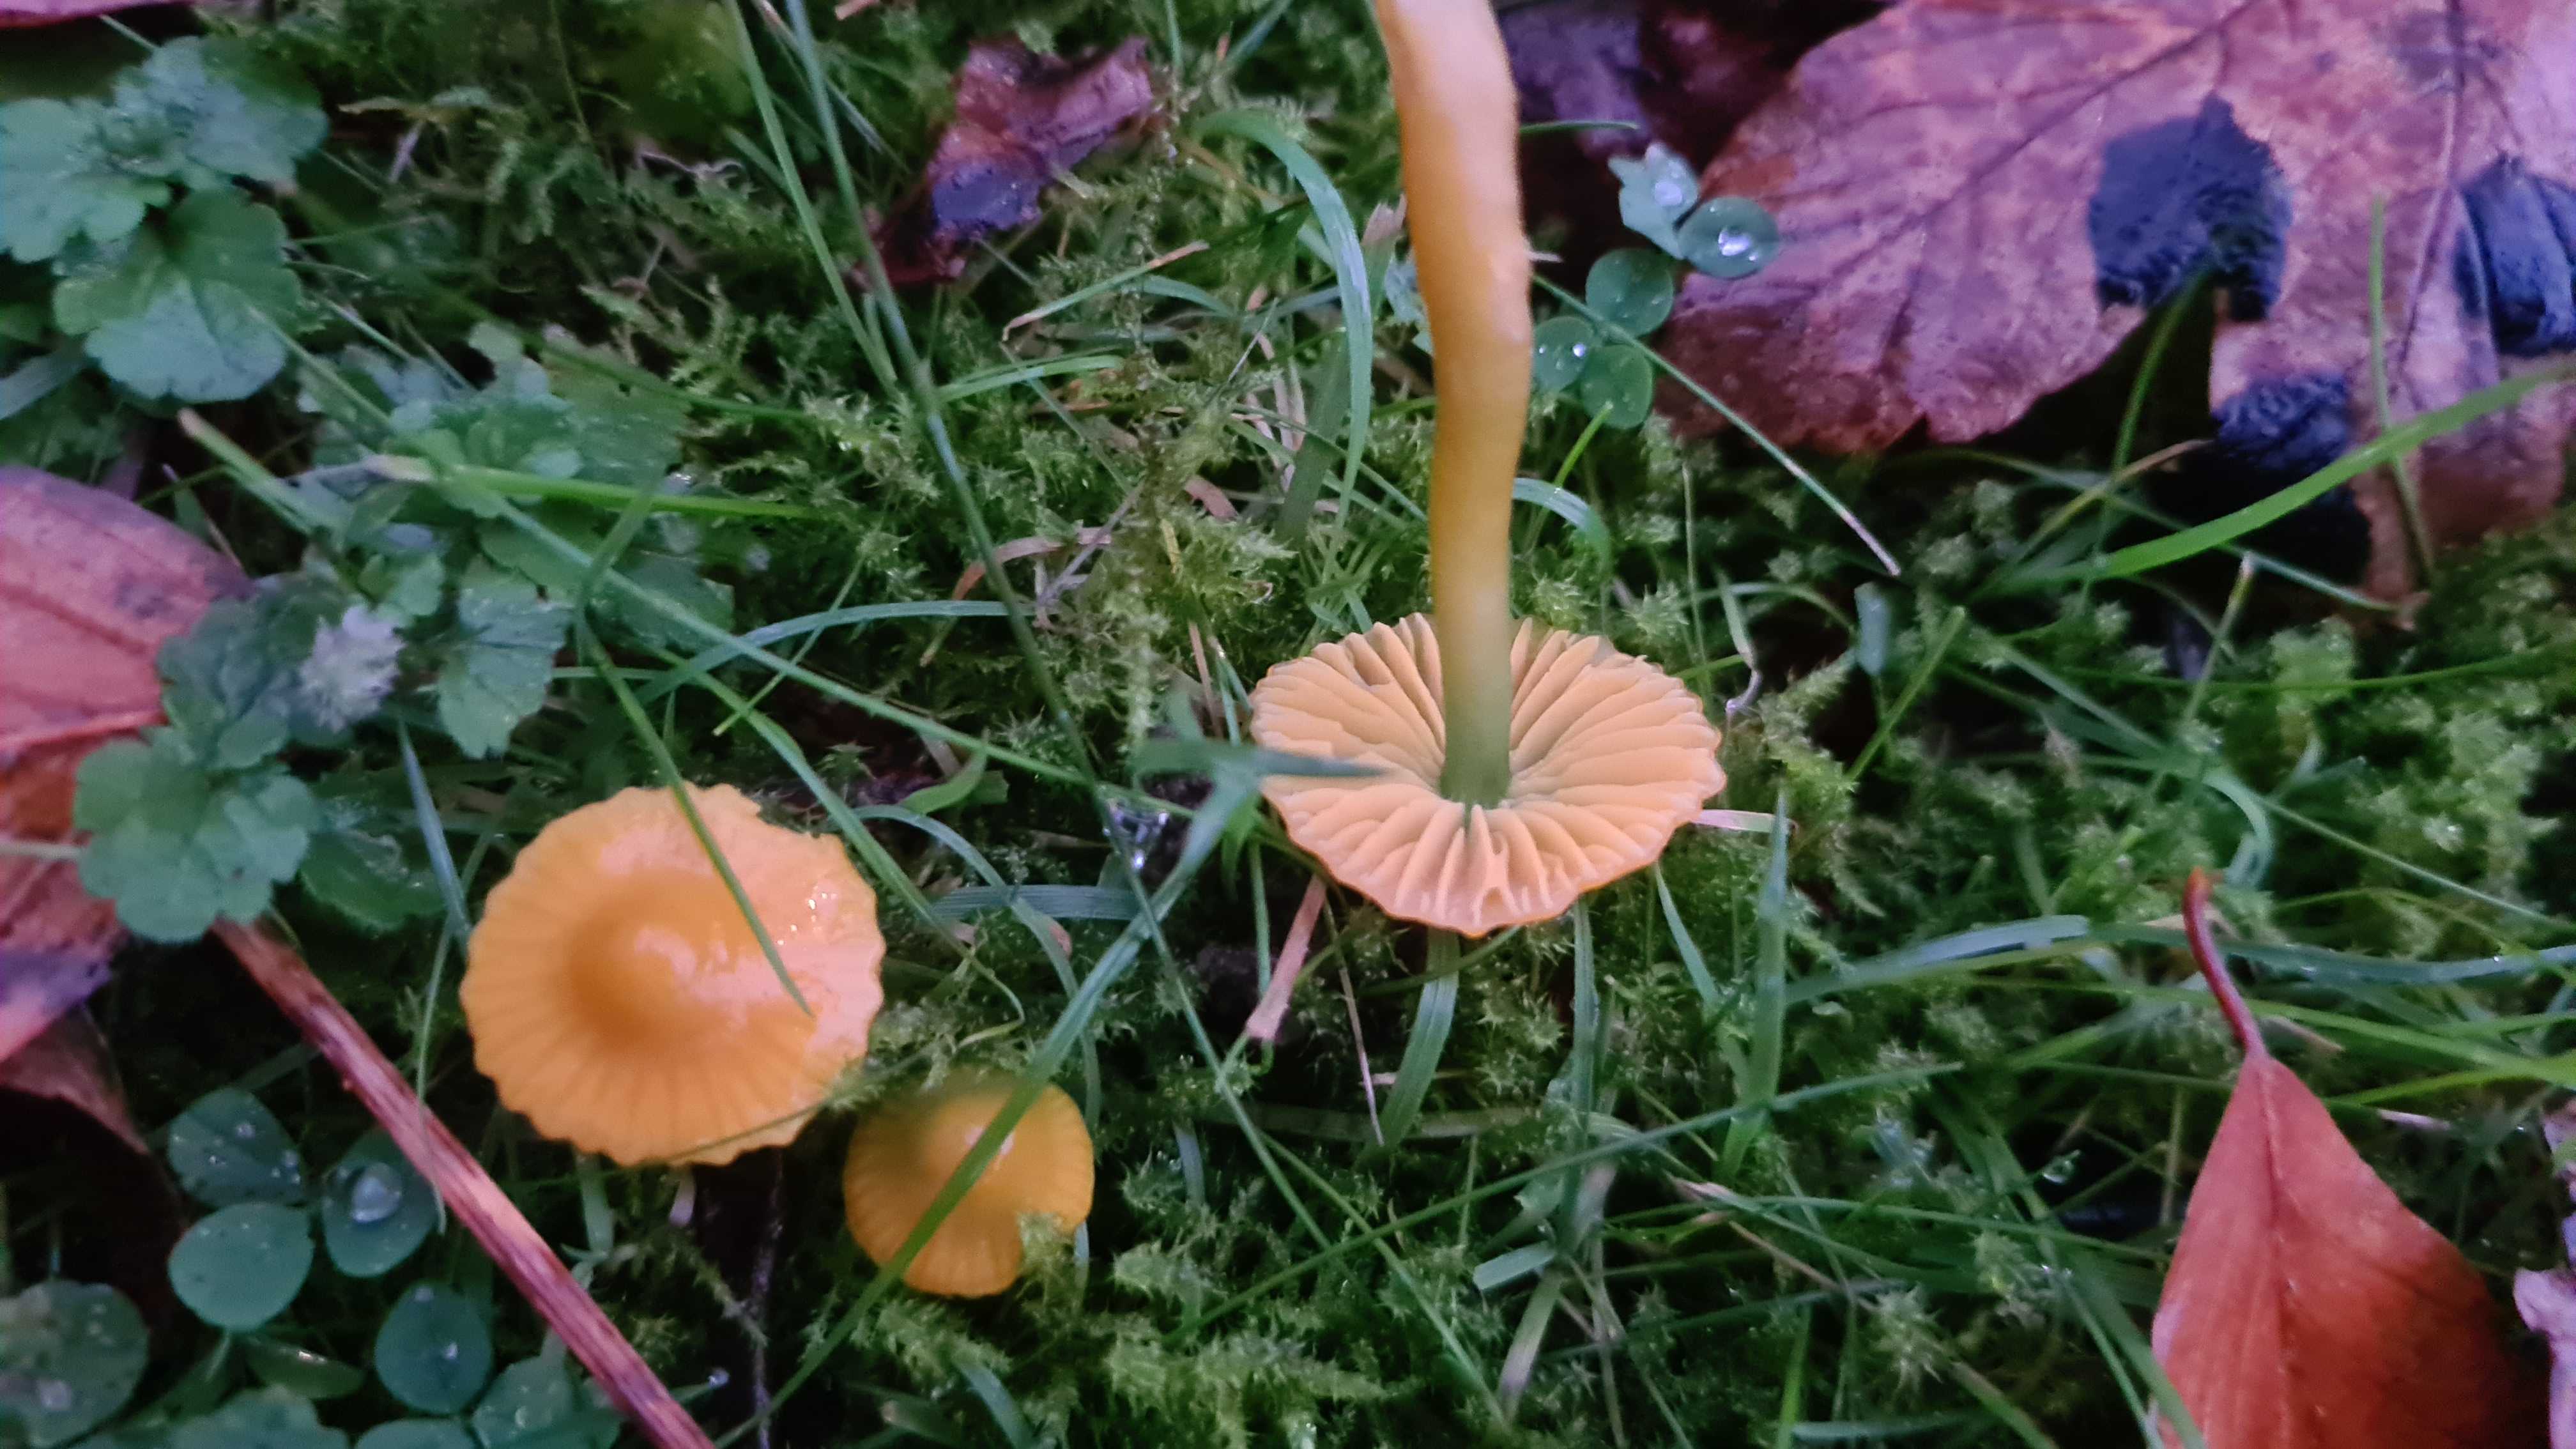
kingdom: Fungi
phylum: Basidiomycota
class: Agaricomycetes
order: Agaricales
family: Hygrophoraceae
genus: Gliophorus
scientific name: Gliophorus psittacinus
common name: papegøje-vokshat
